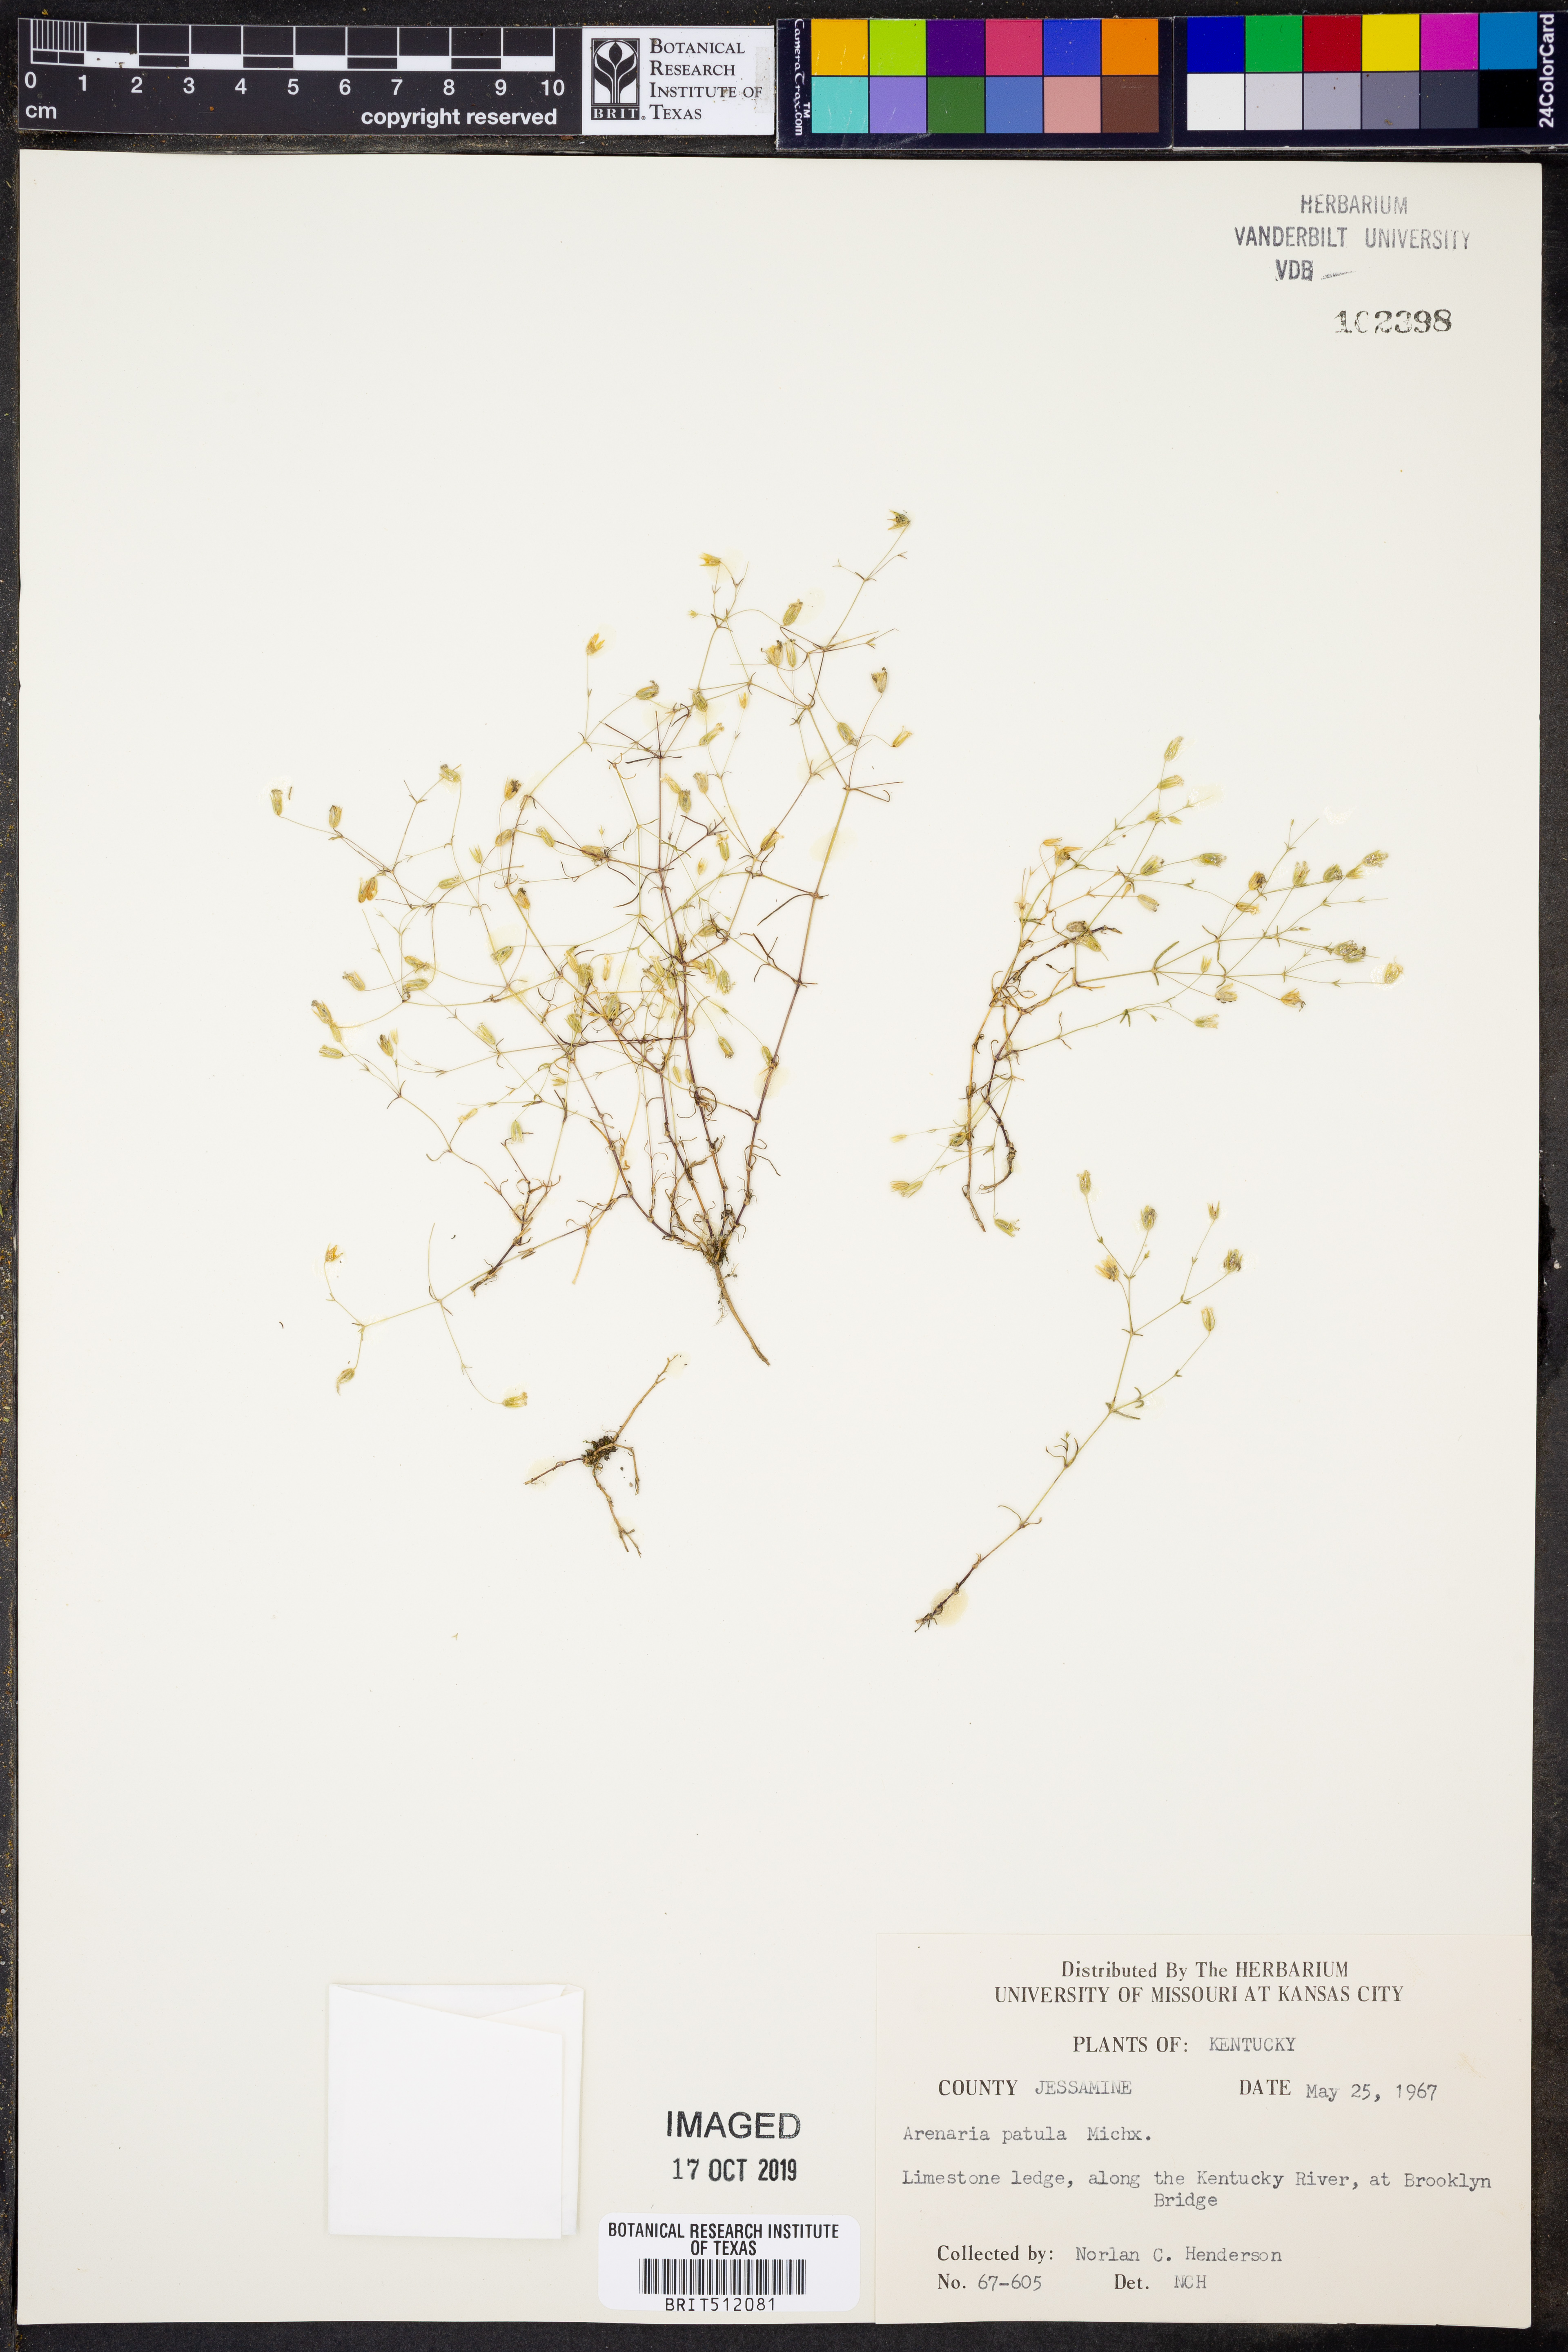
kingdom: Plantae
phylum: Tracheophyta
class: Magnoliopsida
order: Caryophyllales
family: Caryophyllaceae
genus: Mononeuria
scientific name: Mononeuria patula
